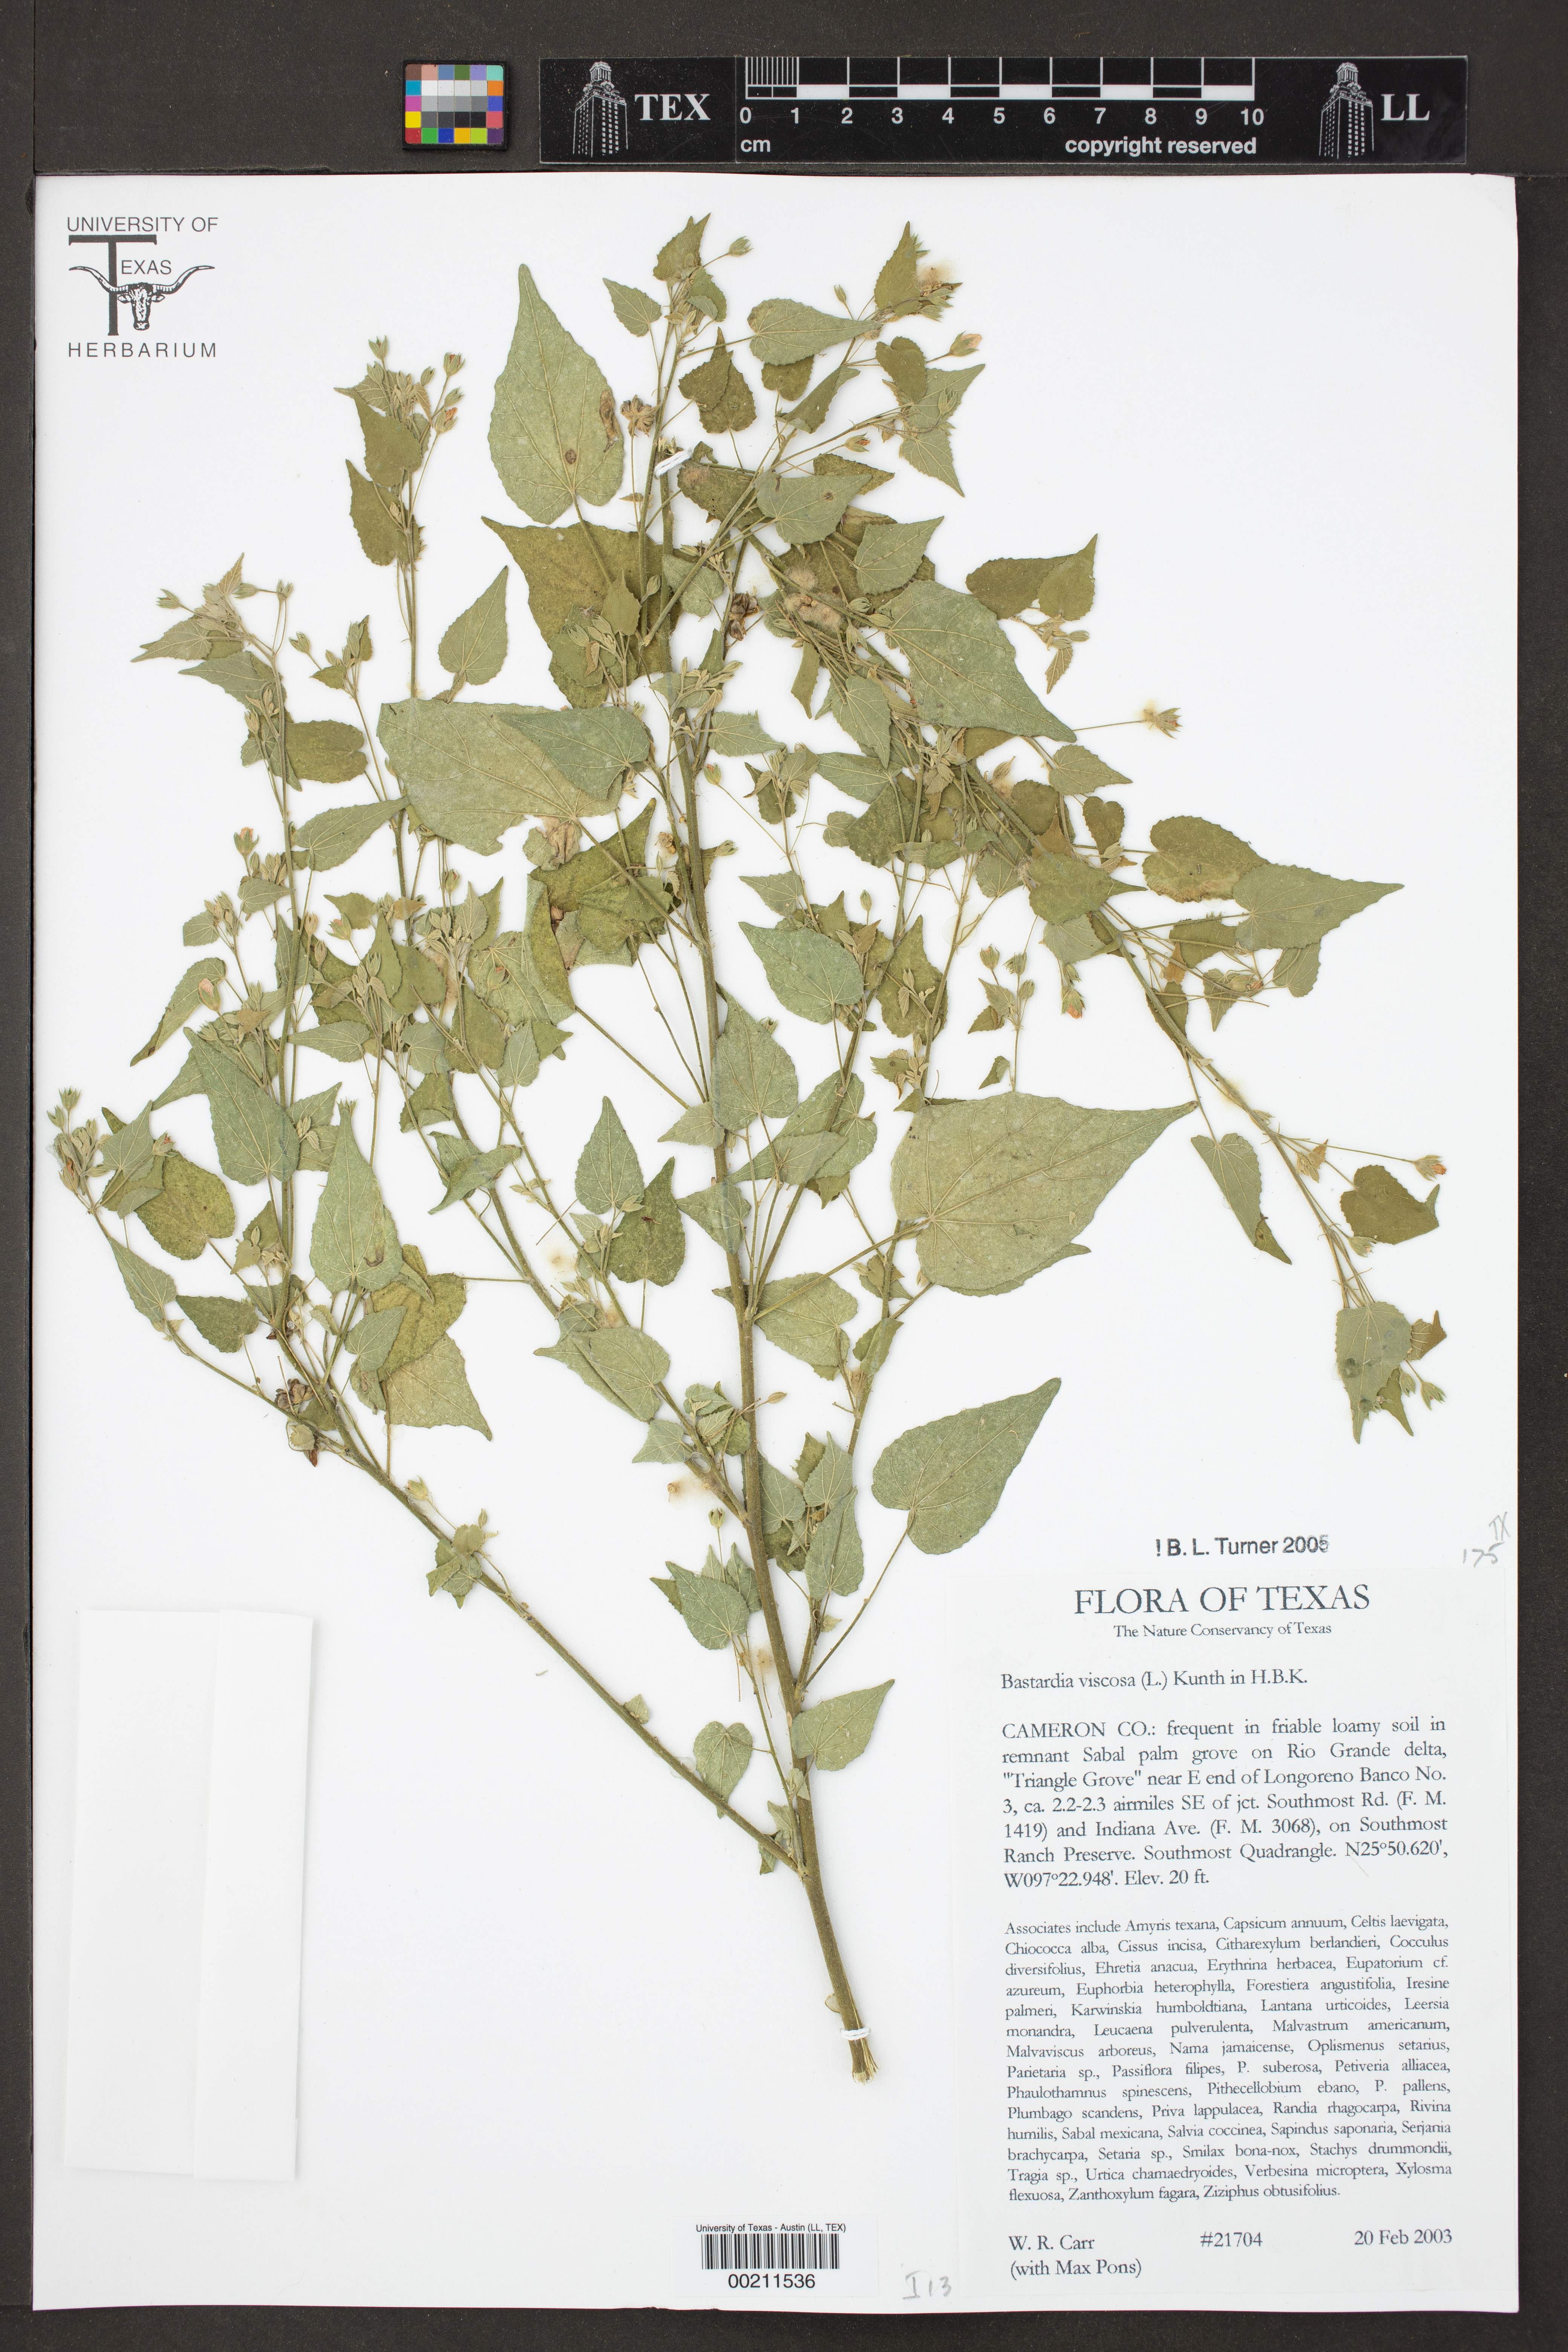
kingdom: Plantae
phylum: Tracheophyta
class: Magnoliopsida
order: Malvales
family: Malvaceae
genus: Abutilon
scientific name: Abutilon viscosum
